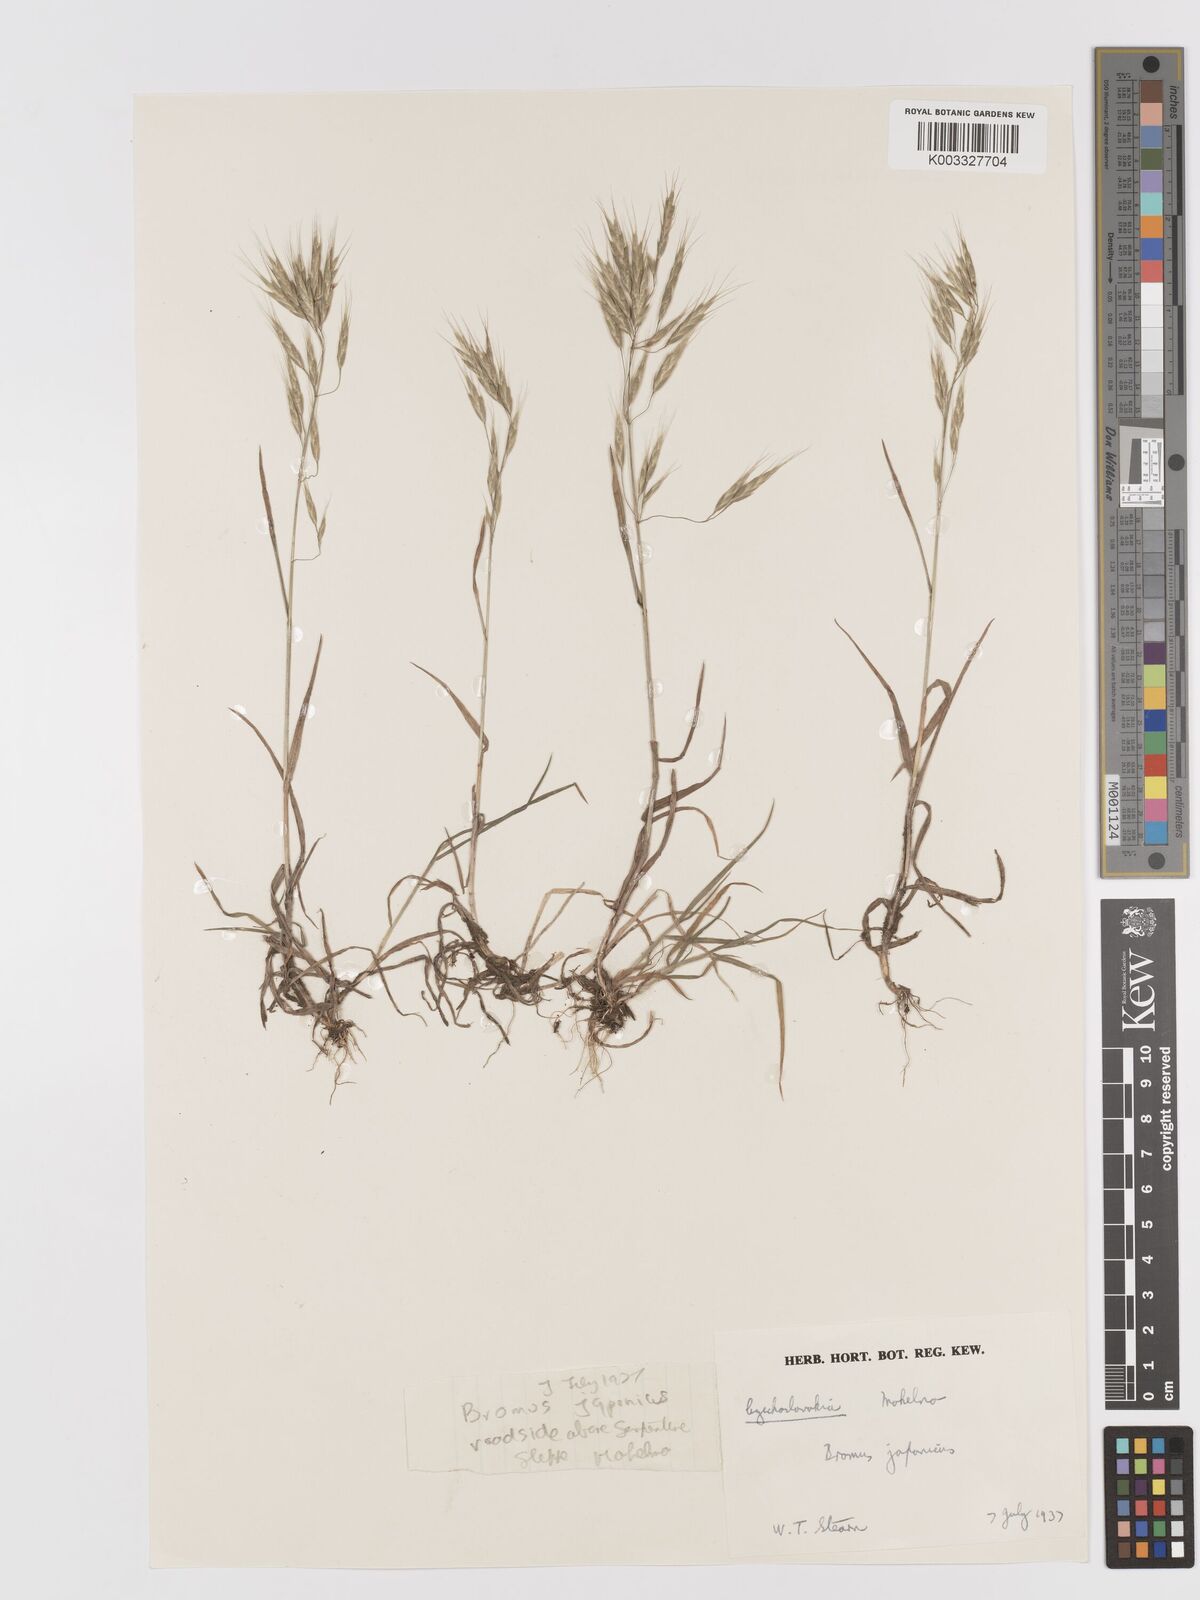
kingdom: Plantae
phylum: Tracheophyta
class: Liliopsida
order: Poales
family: Poaceae
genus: Bromus
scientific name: Bromus japonicus
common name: Japanese brome
